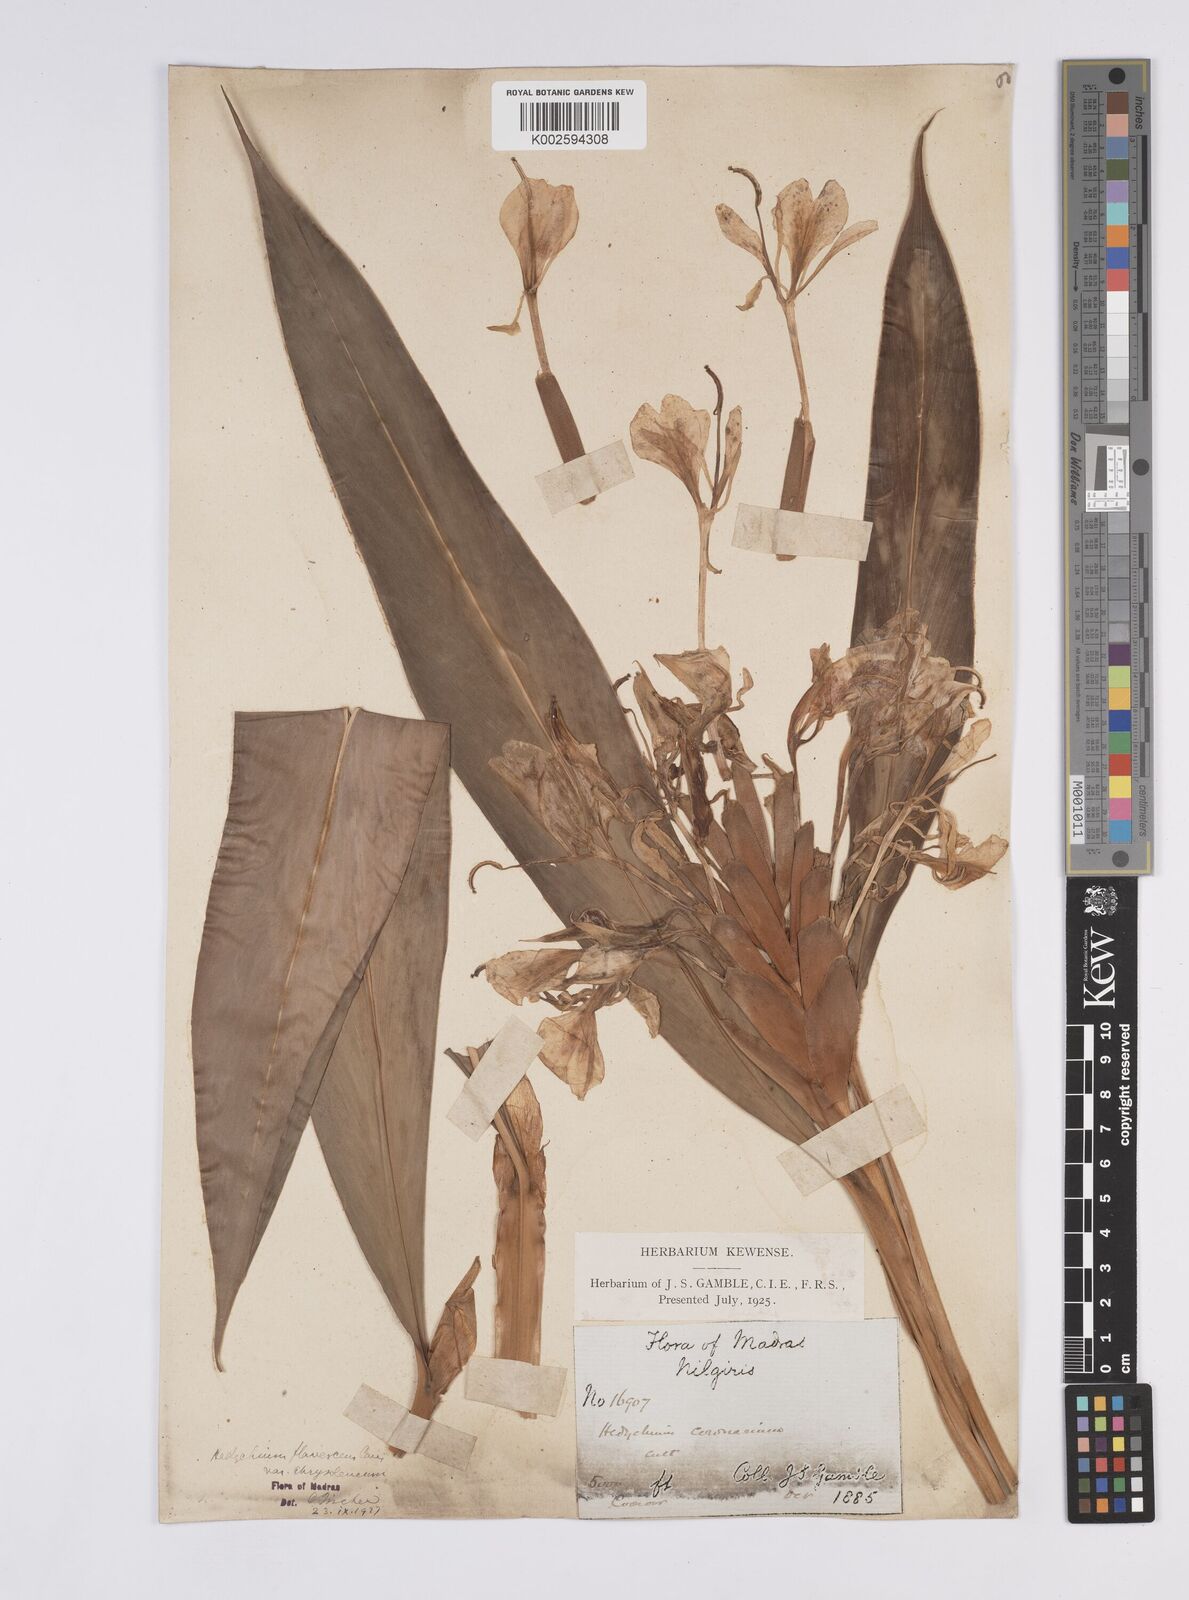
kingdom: Plantae
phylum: Tracheophyta
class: Liliopsida
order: Zingiberales
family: Zingiberaceae
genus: Hedychium
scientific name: Hedychium flavescens
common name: Yellow ginger
